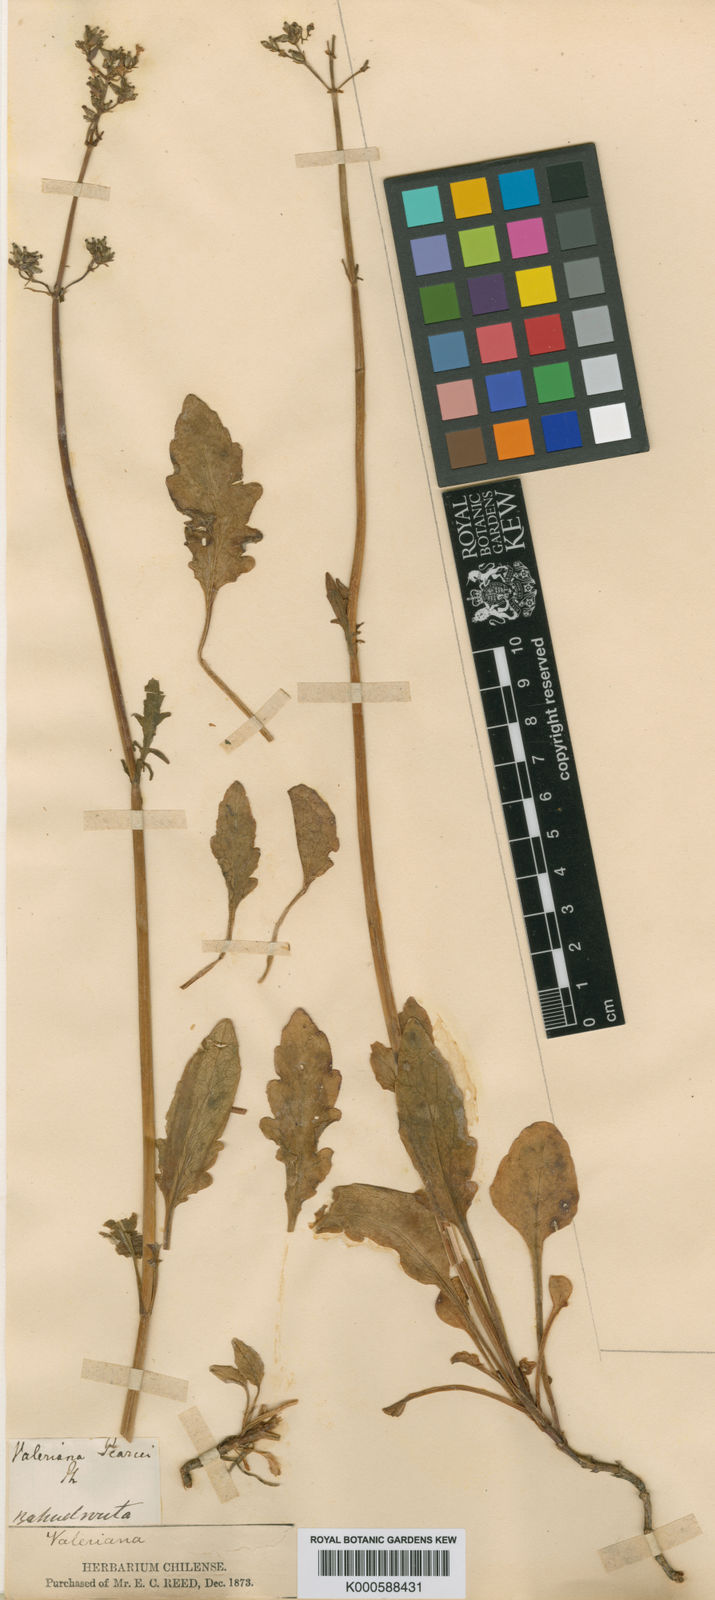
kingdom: Plantae
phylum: Tracheophyta
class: Magnoliopsida
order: Dipsacales
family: Caprifoliaceae
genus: Valeriana
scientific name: Valeriana laxiflora
